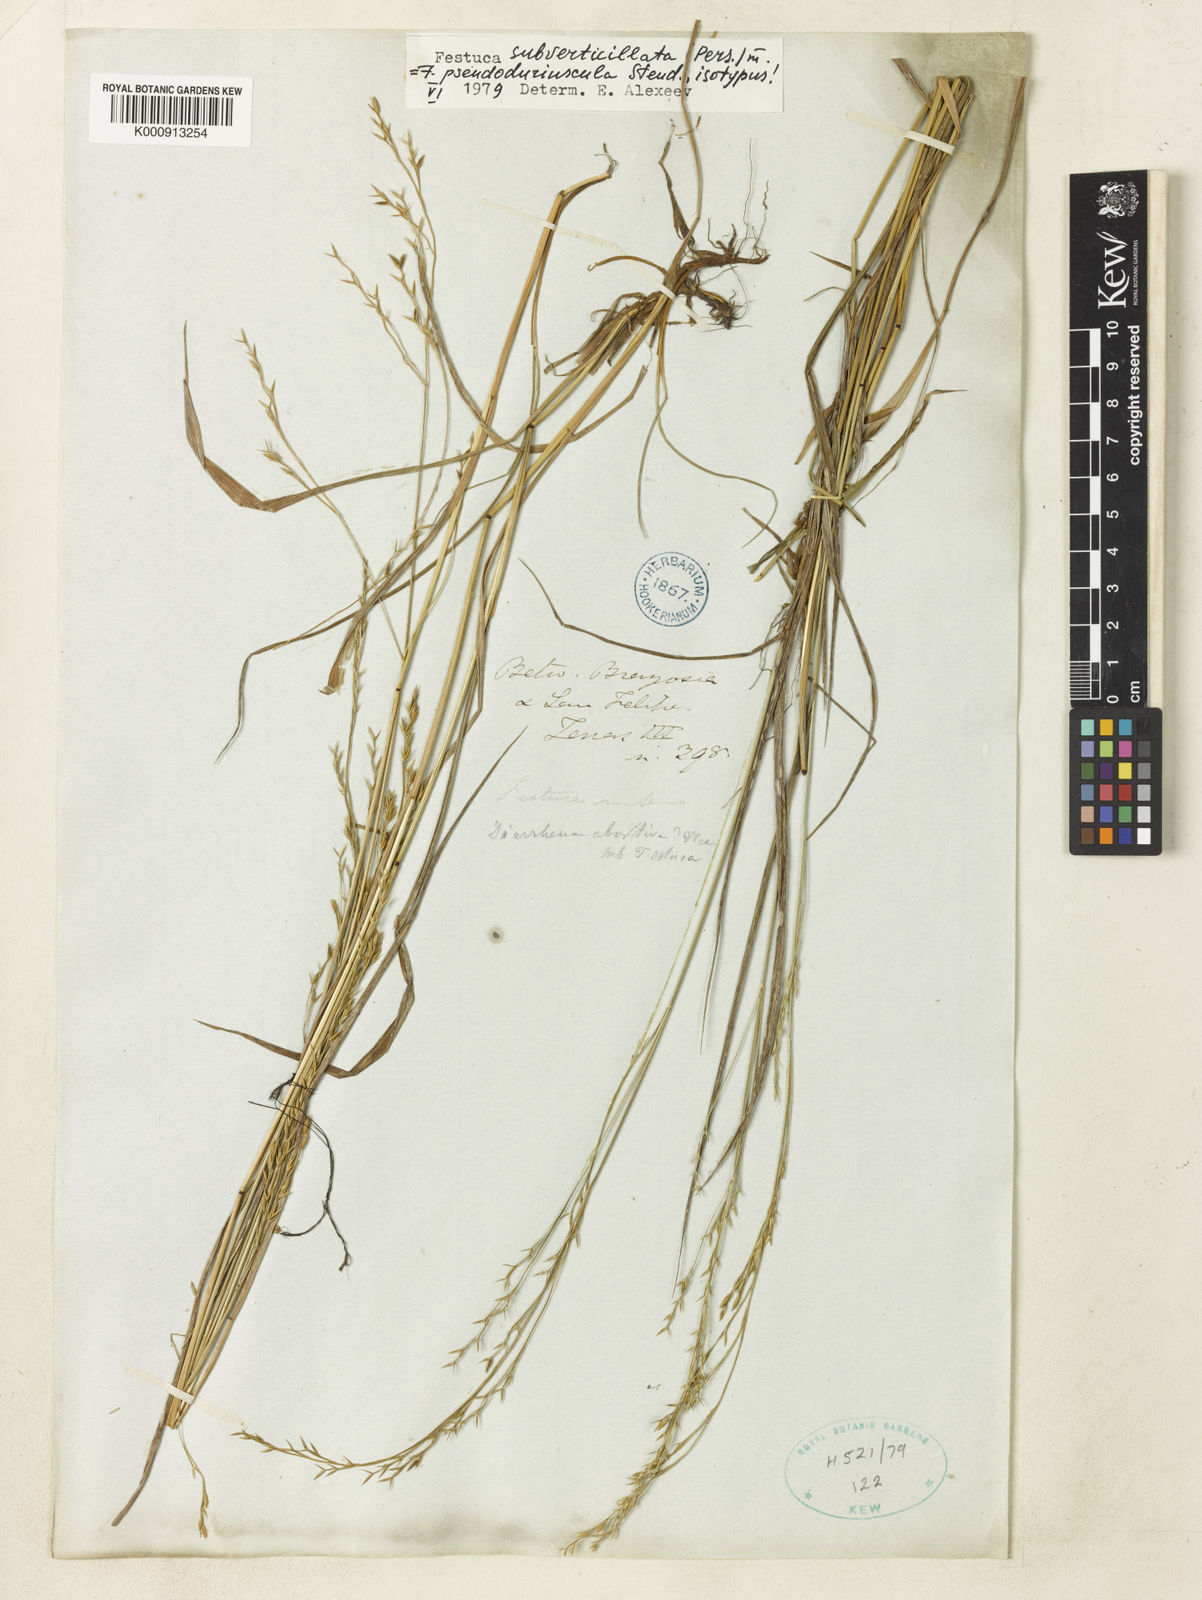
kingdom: Plantae
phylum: Tracheophyta
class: Liliopsida
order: Poales
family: Poaceae
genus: Festuca
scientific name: Festuca subverticillata
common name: Nodding fescue
